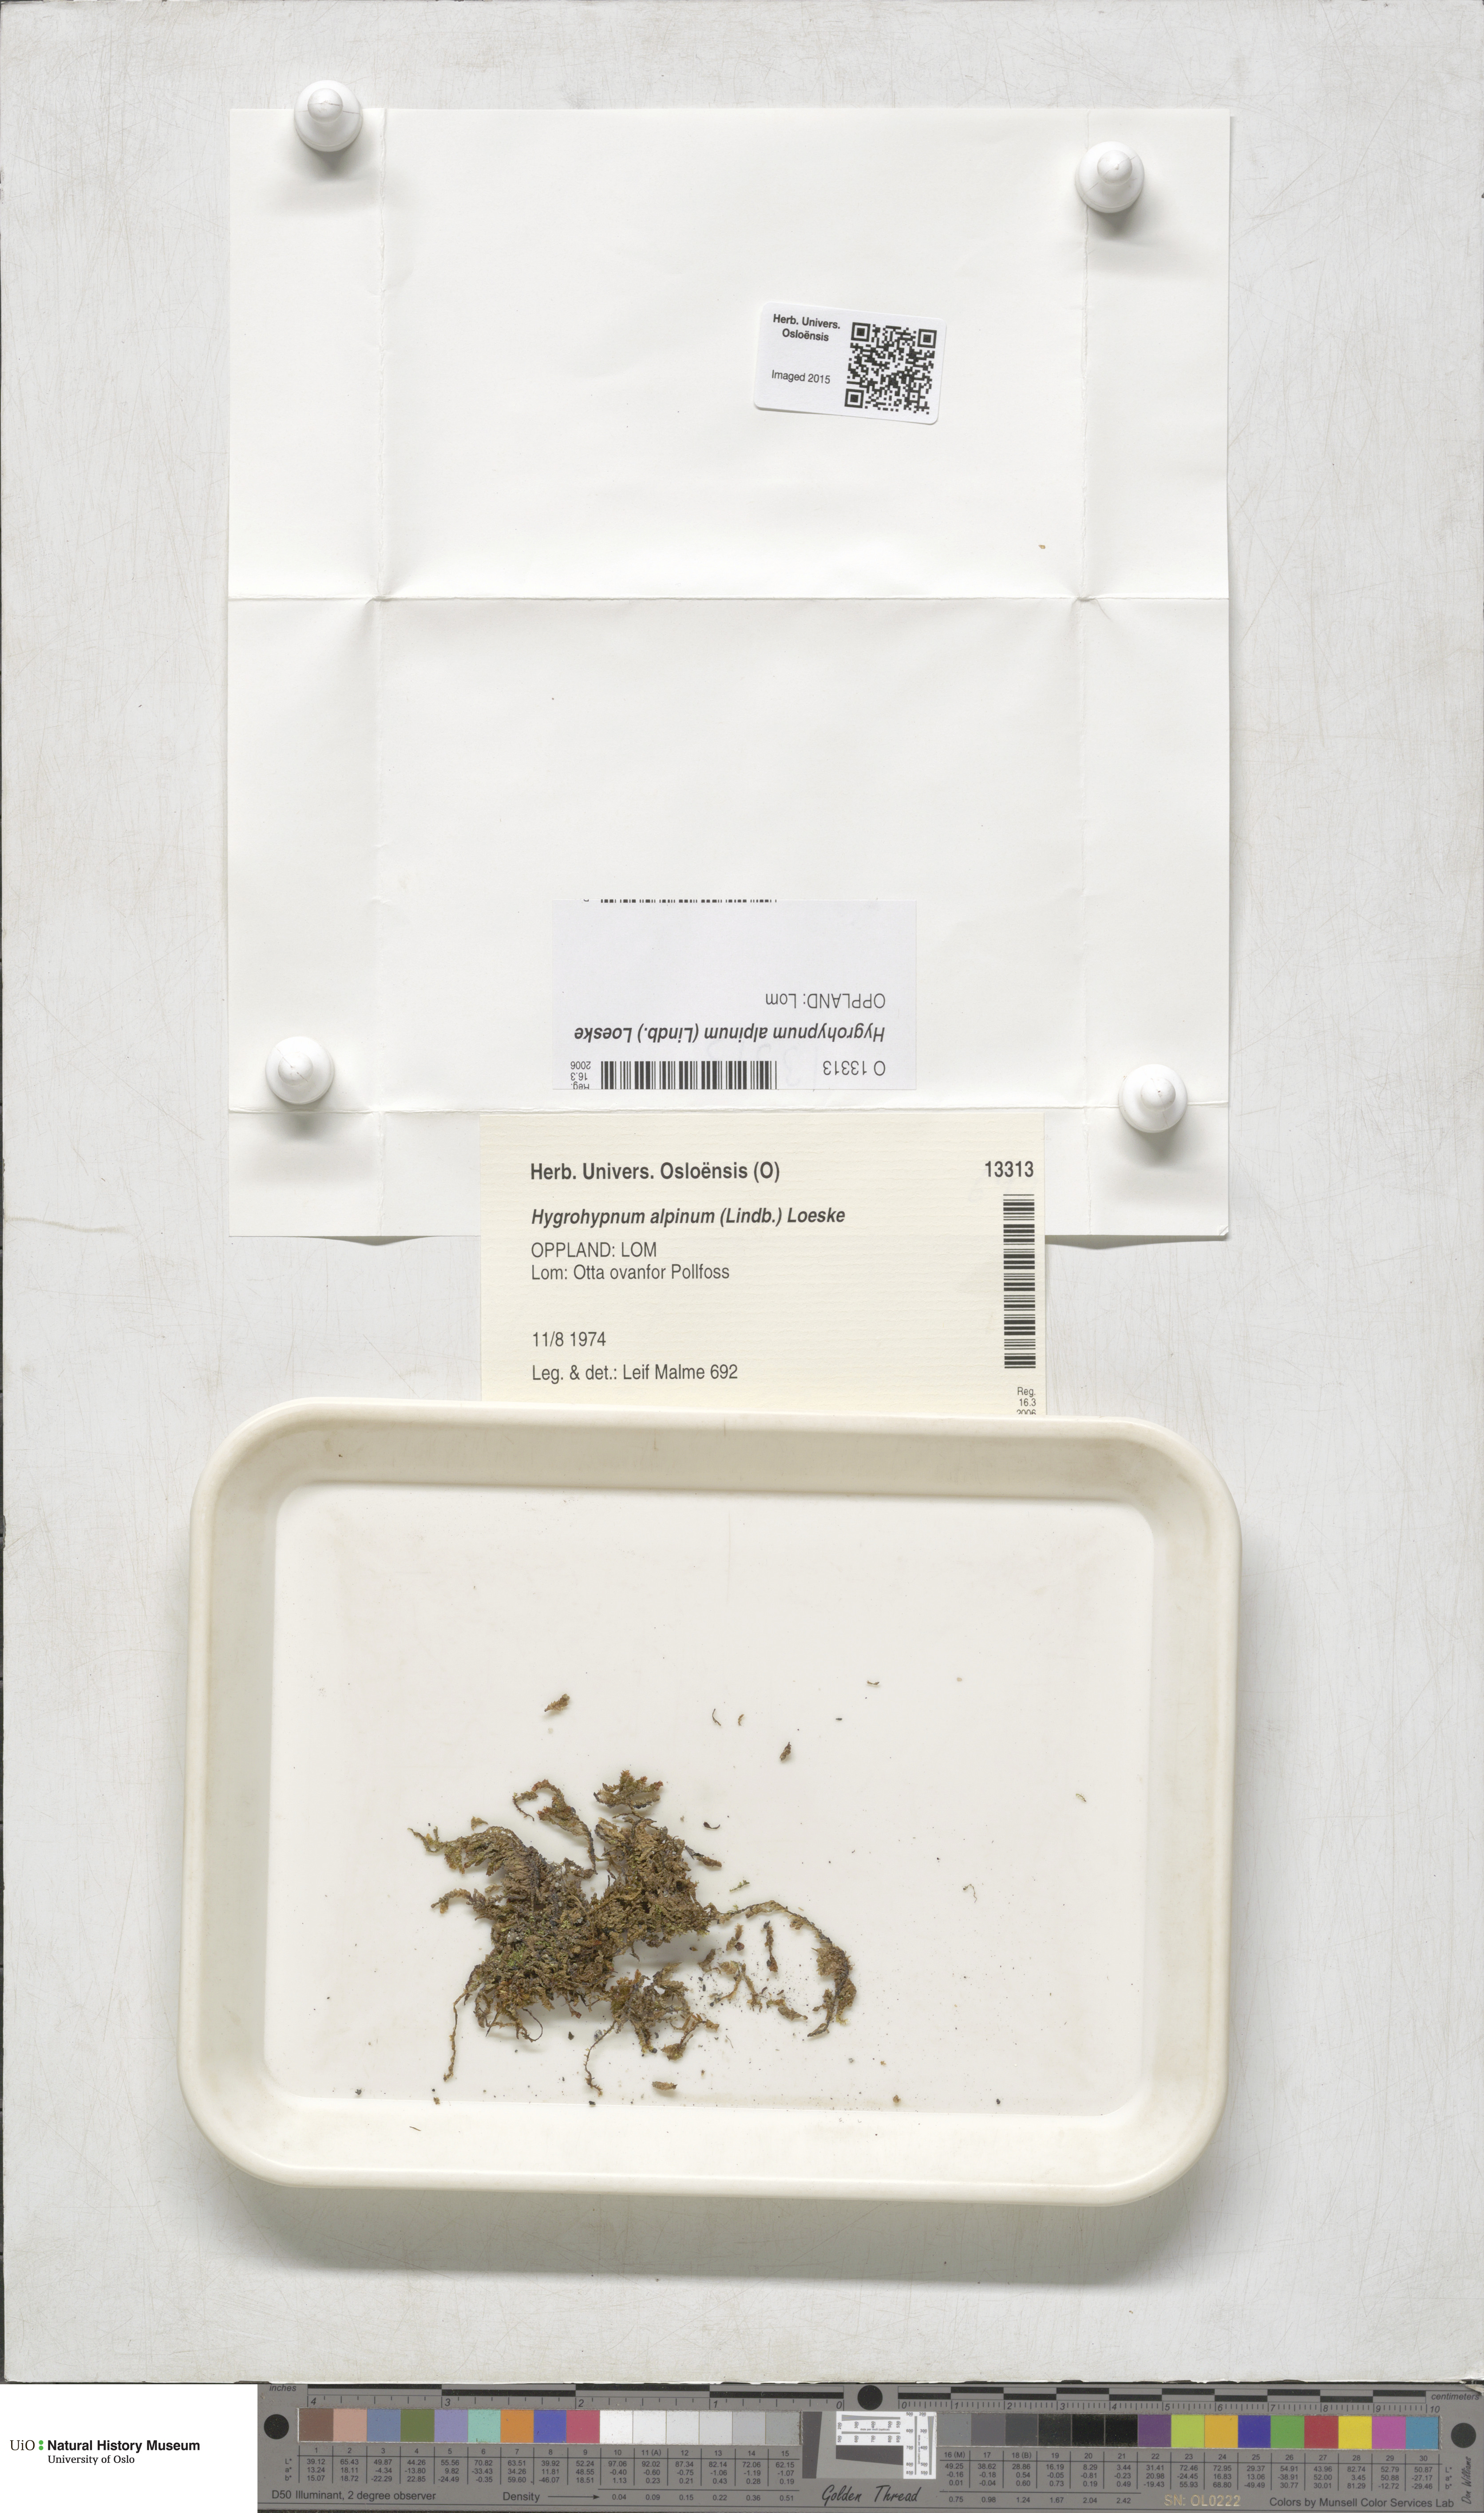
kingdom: Plantae
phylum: Bryophyta
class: Bryopsida
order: Hypnales
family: Amblystegiaceae
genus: Platyhypnum
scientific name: Platyhypnum alpinum
